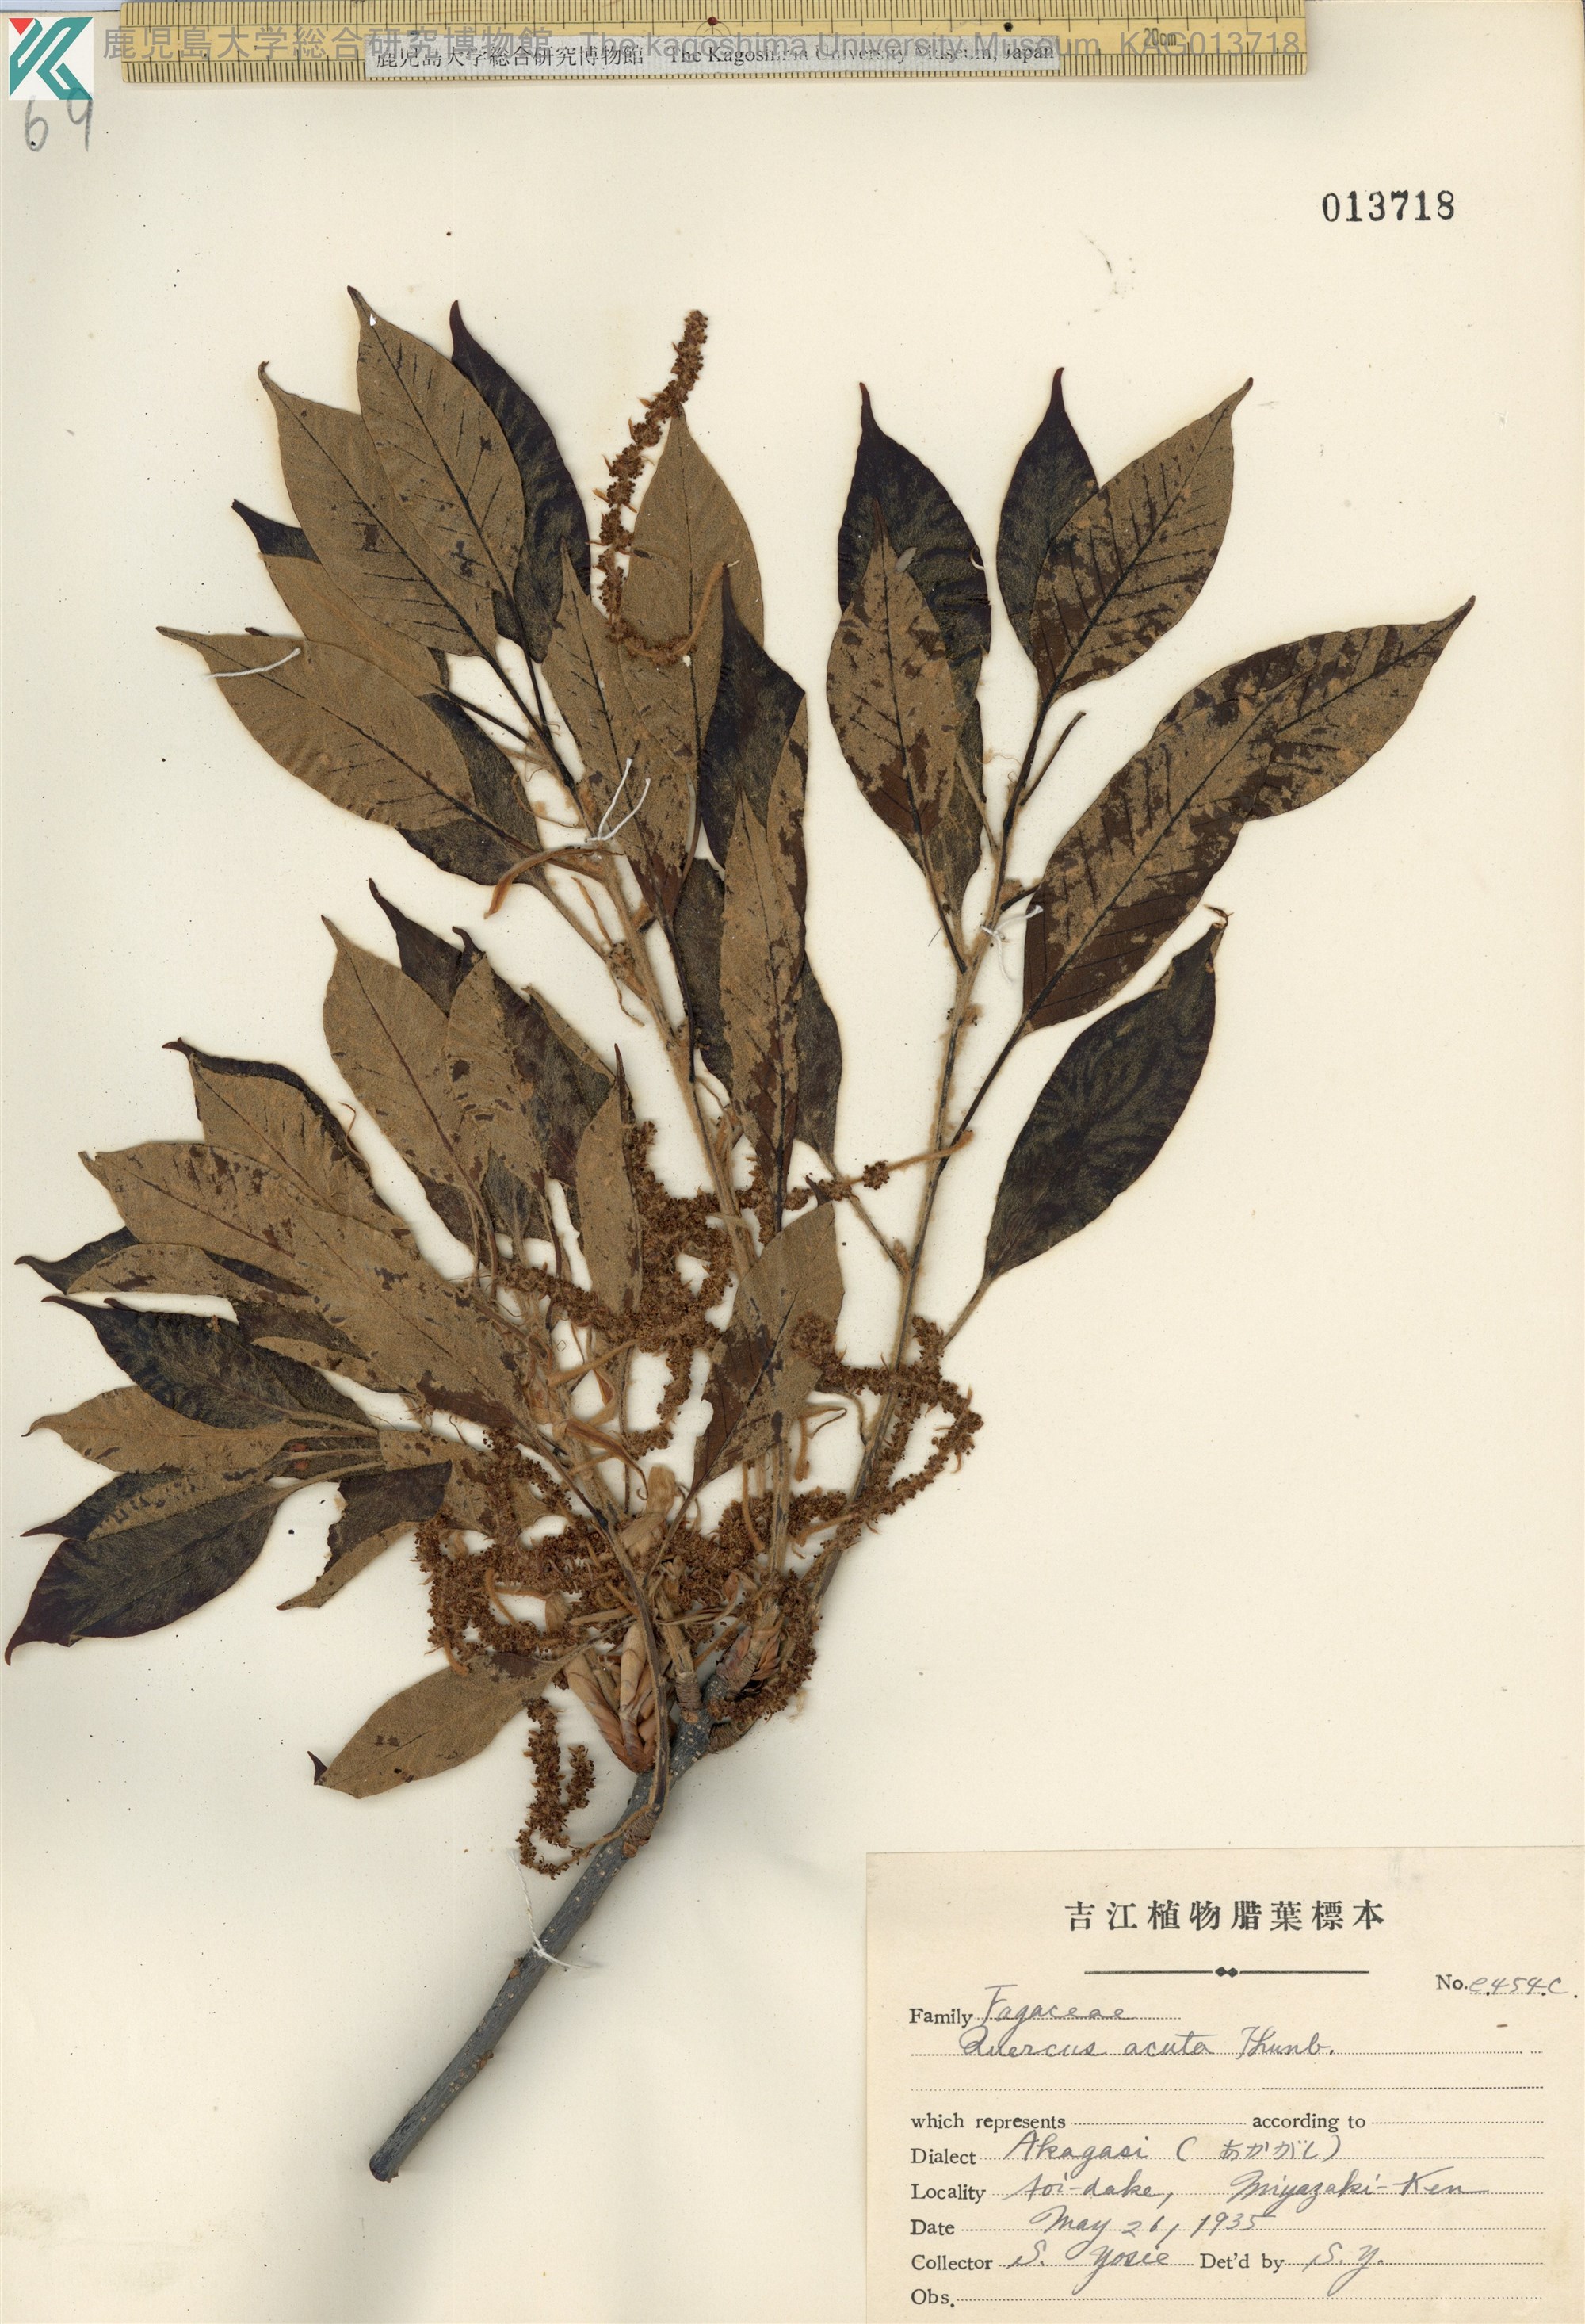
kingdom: Plantae
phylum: Tracheophyta
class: Magnoliopsida
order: Fagales
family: Fagaceae
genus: Quercus
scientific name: Quercus acuta
